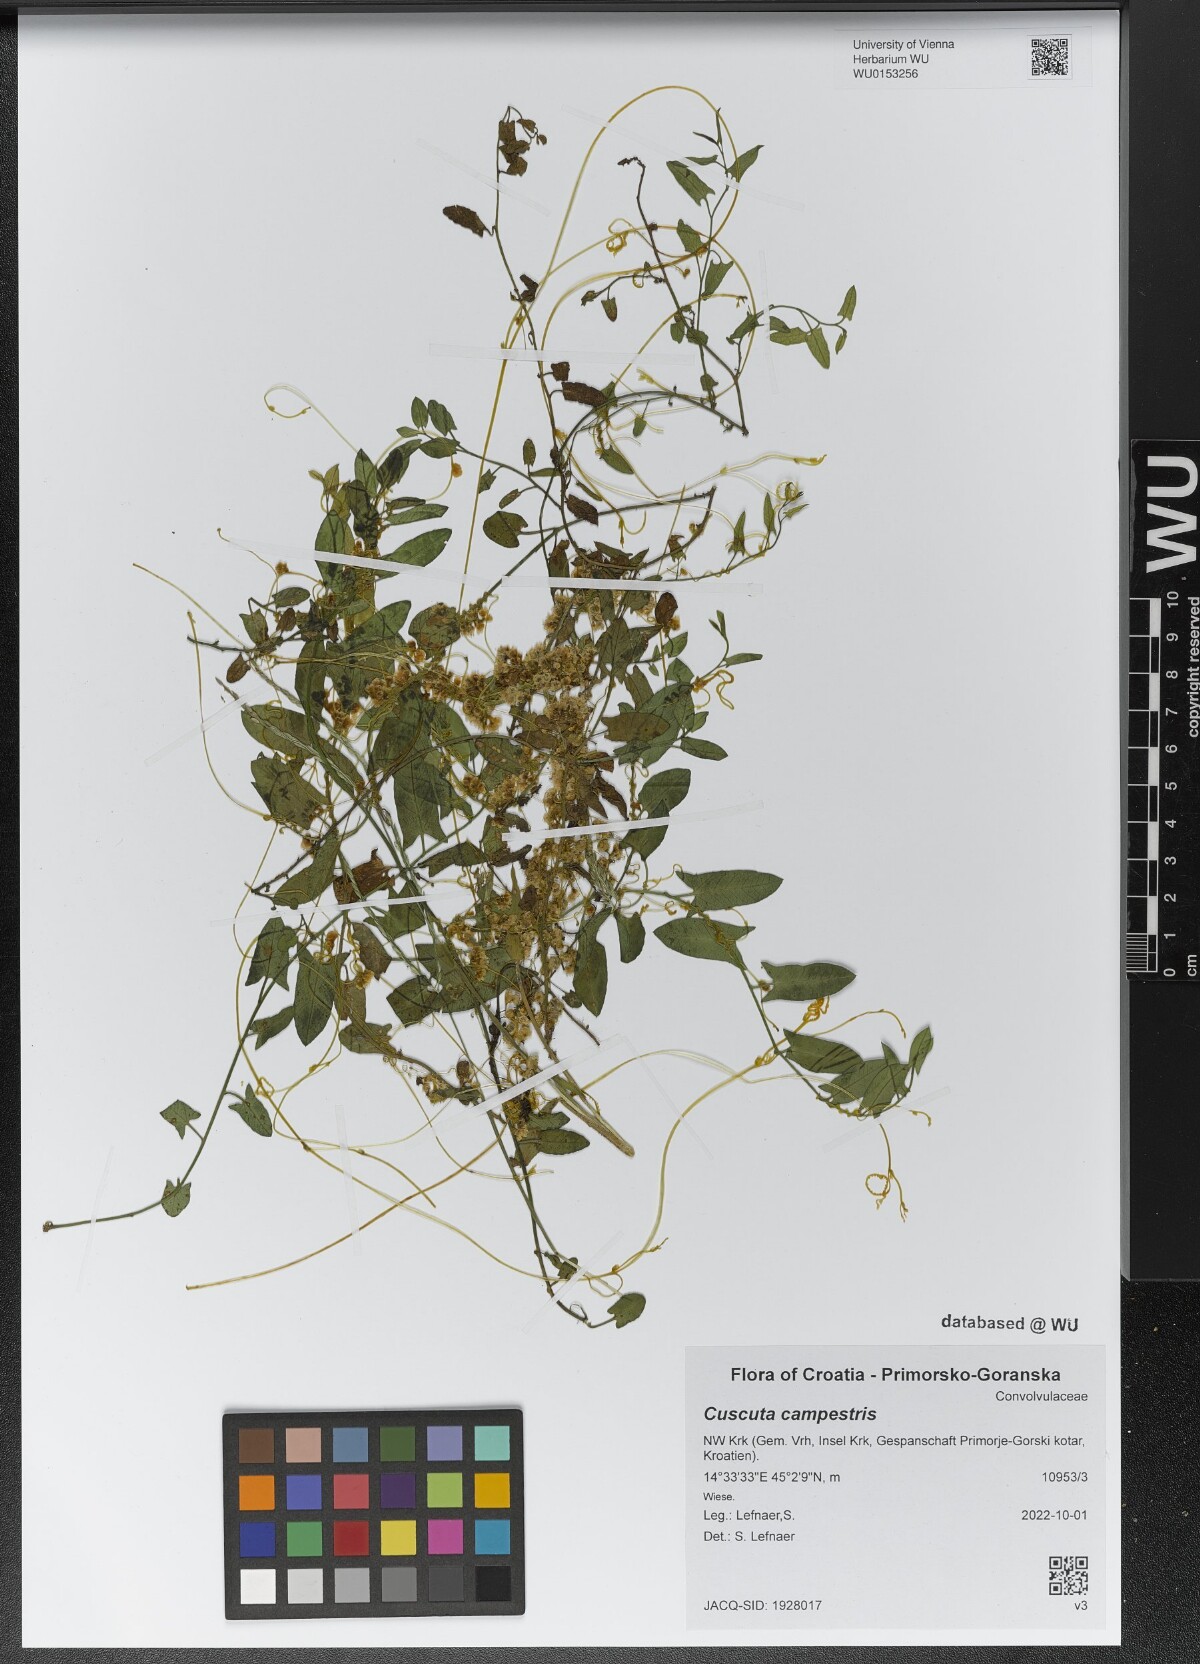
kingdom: Plantae
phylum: Tracheophyta
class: Magnoliopsida
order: Solanales
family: Convolvulaceae
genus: Cuscuta
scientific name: Cuscuta campestris
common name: Yellow dodder
